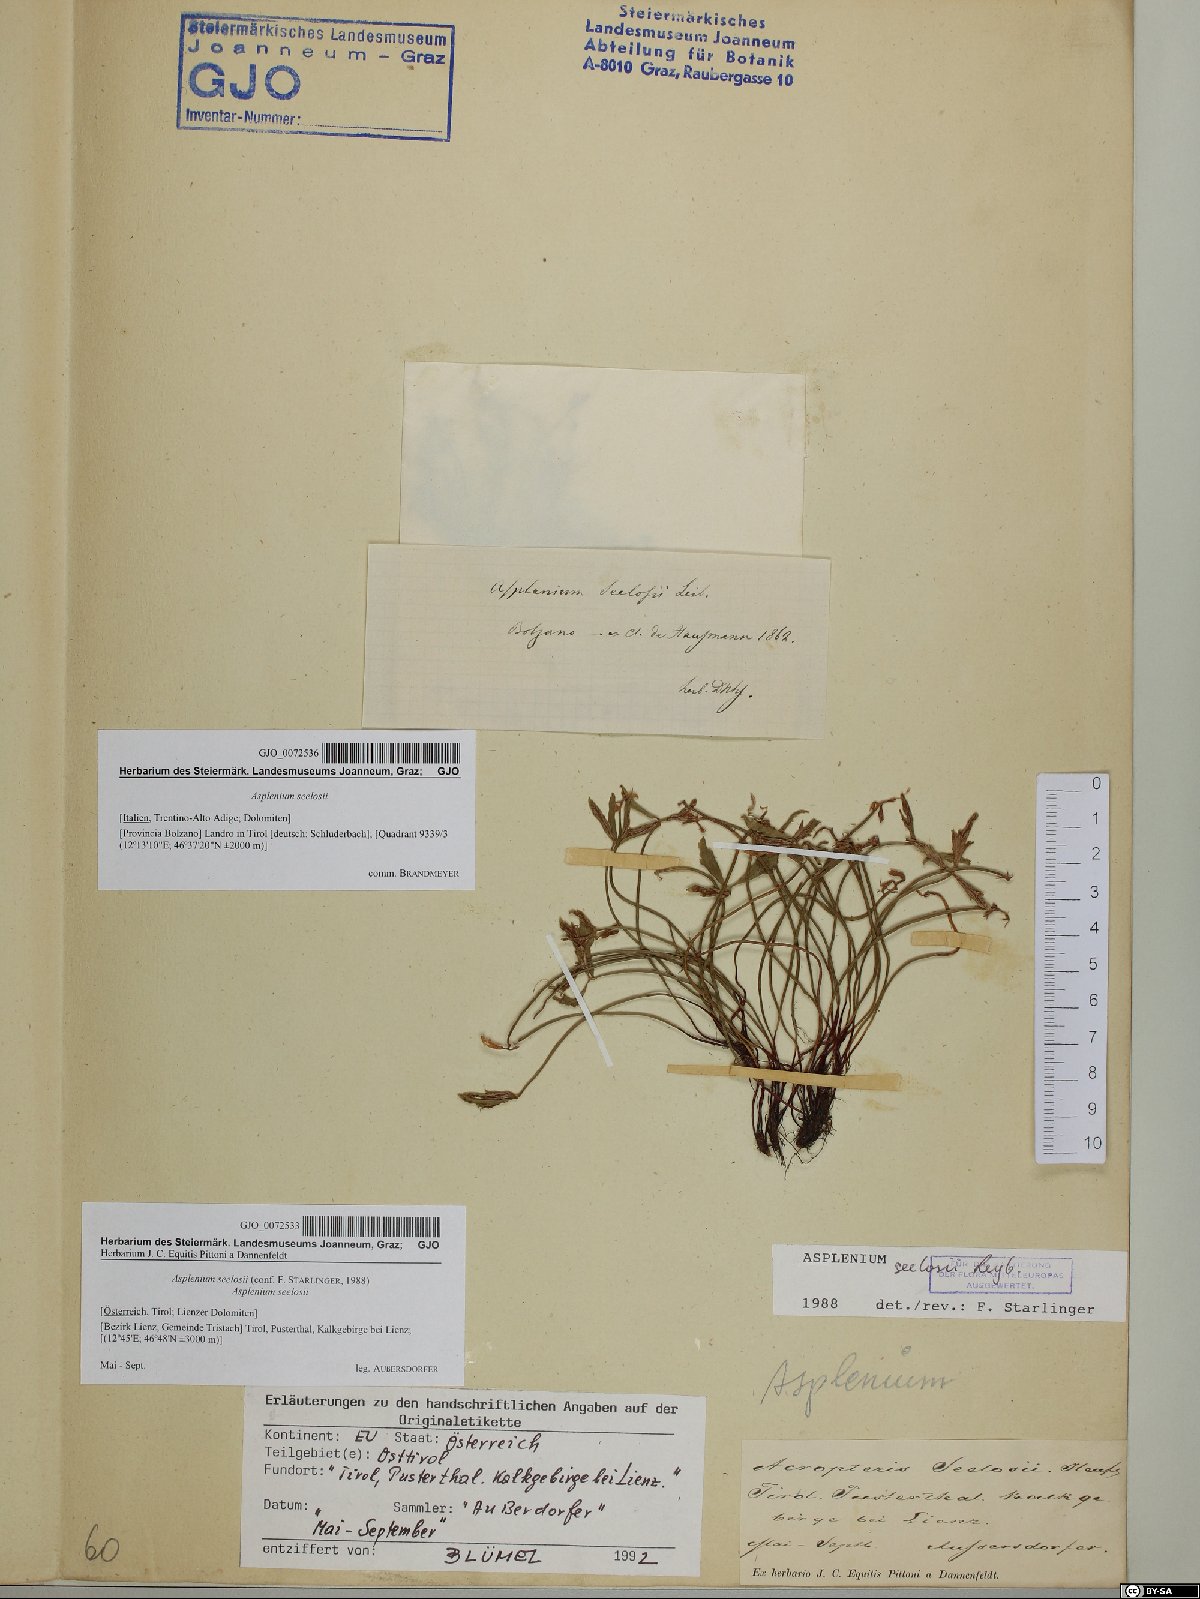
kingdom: Plantae
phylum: Tracheophyta
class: Polypodiopsida
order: Polypodiales
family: Aspleniaceae
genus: Asplenium
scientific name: Asplenium seelosii
